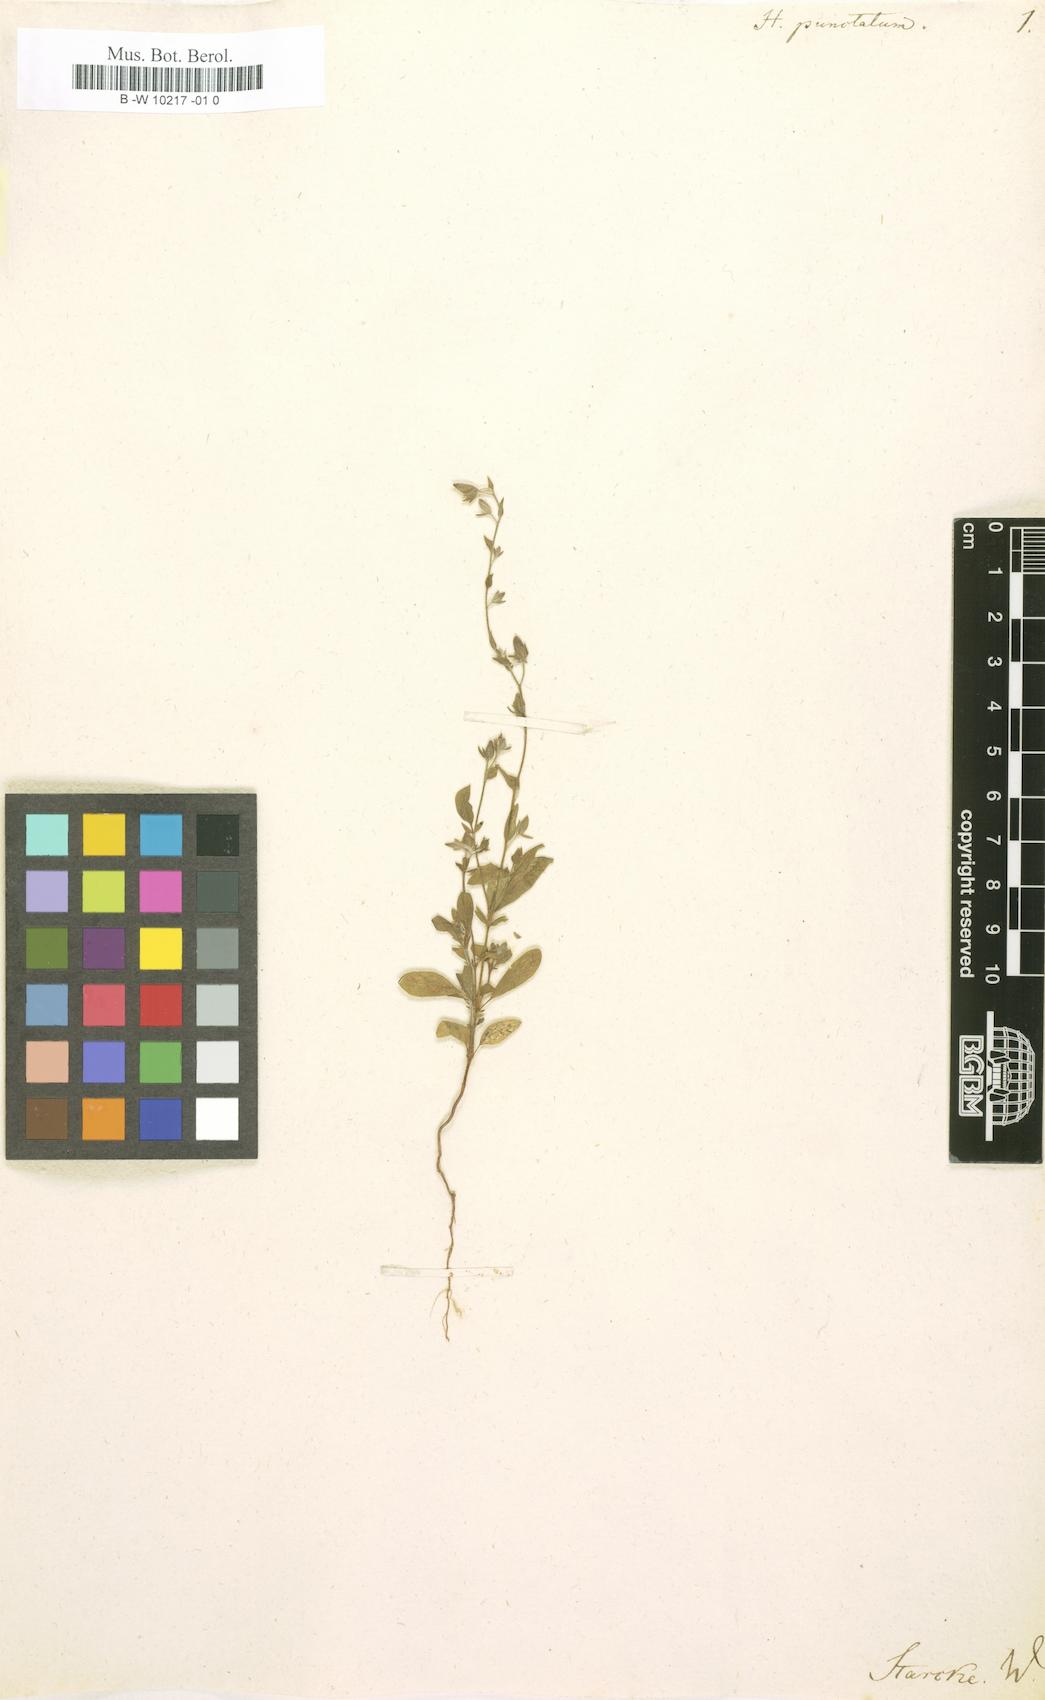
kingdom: Plantae
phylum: Tracheophyta
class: Magnoliopsida
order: Malvales
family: Cistaceae
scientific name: Cistaceae
